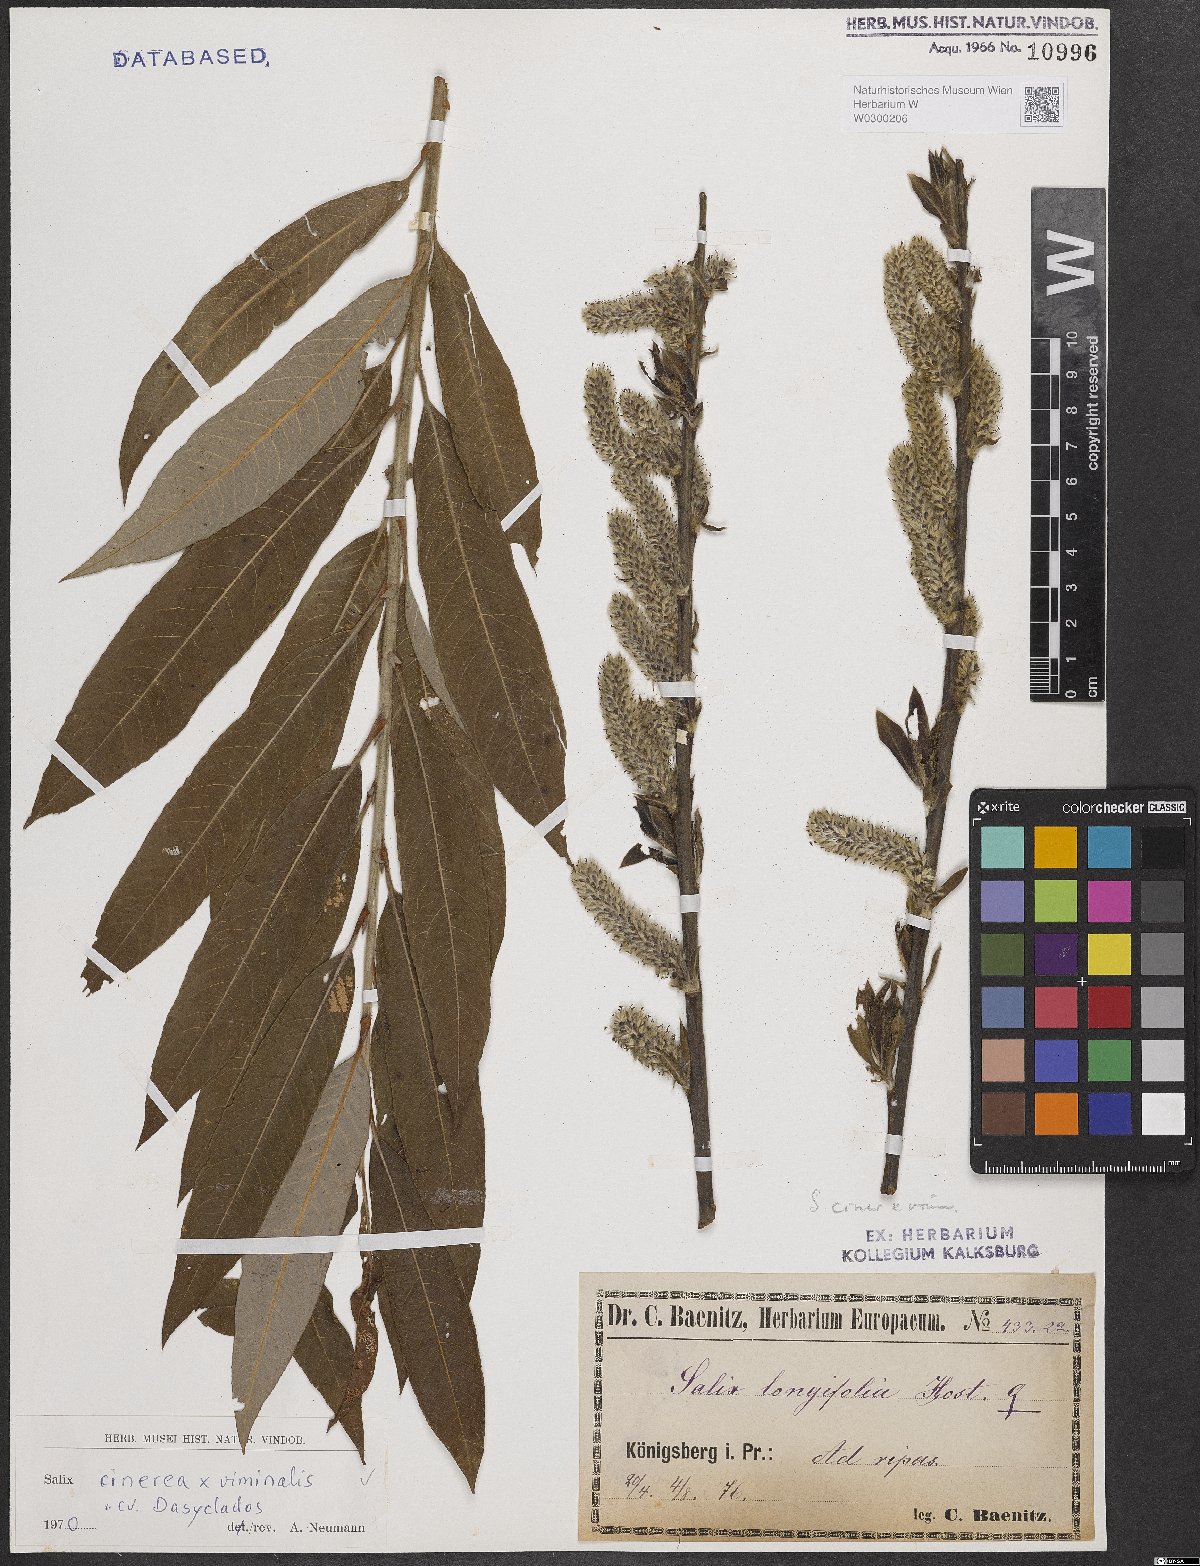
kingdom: Plantae
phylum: Tracheophyta
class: Magnoliopsida
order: Malpighiales
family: Salicaceae
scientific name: Salicaceae
